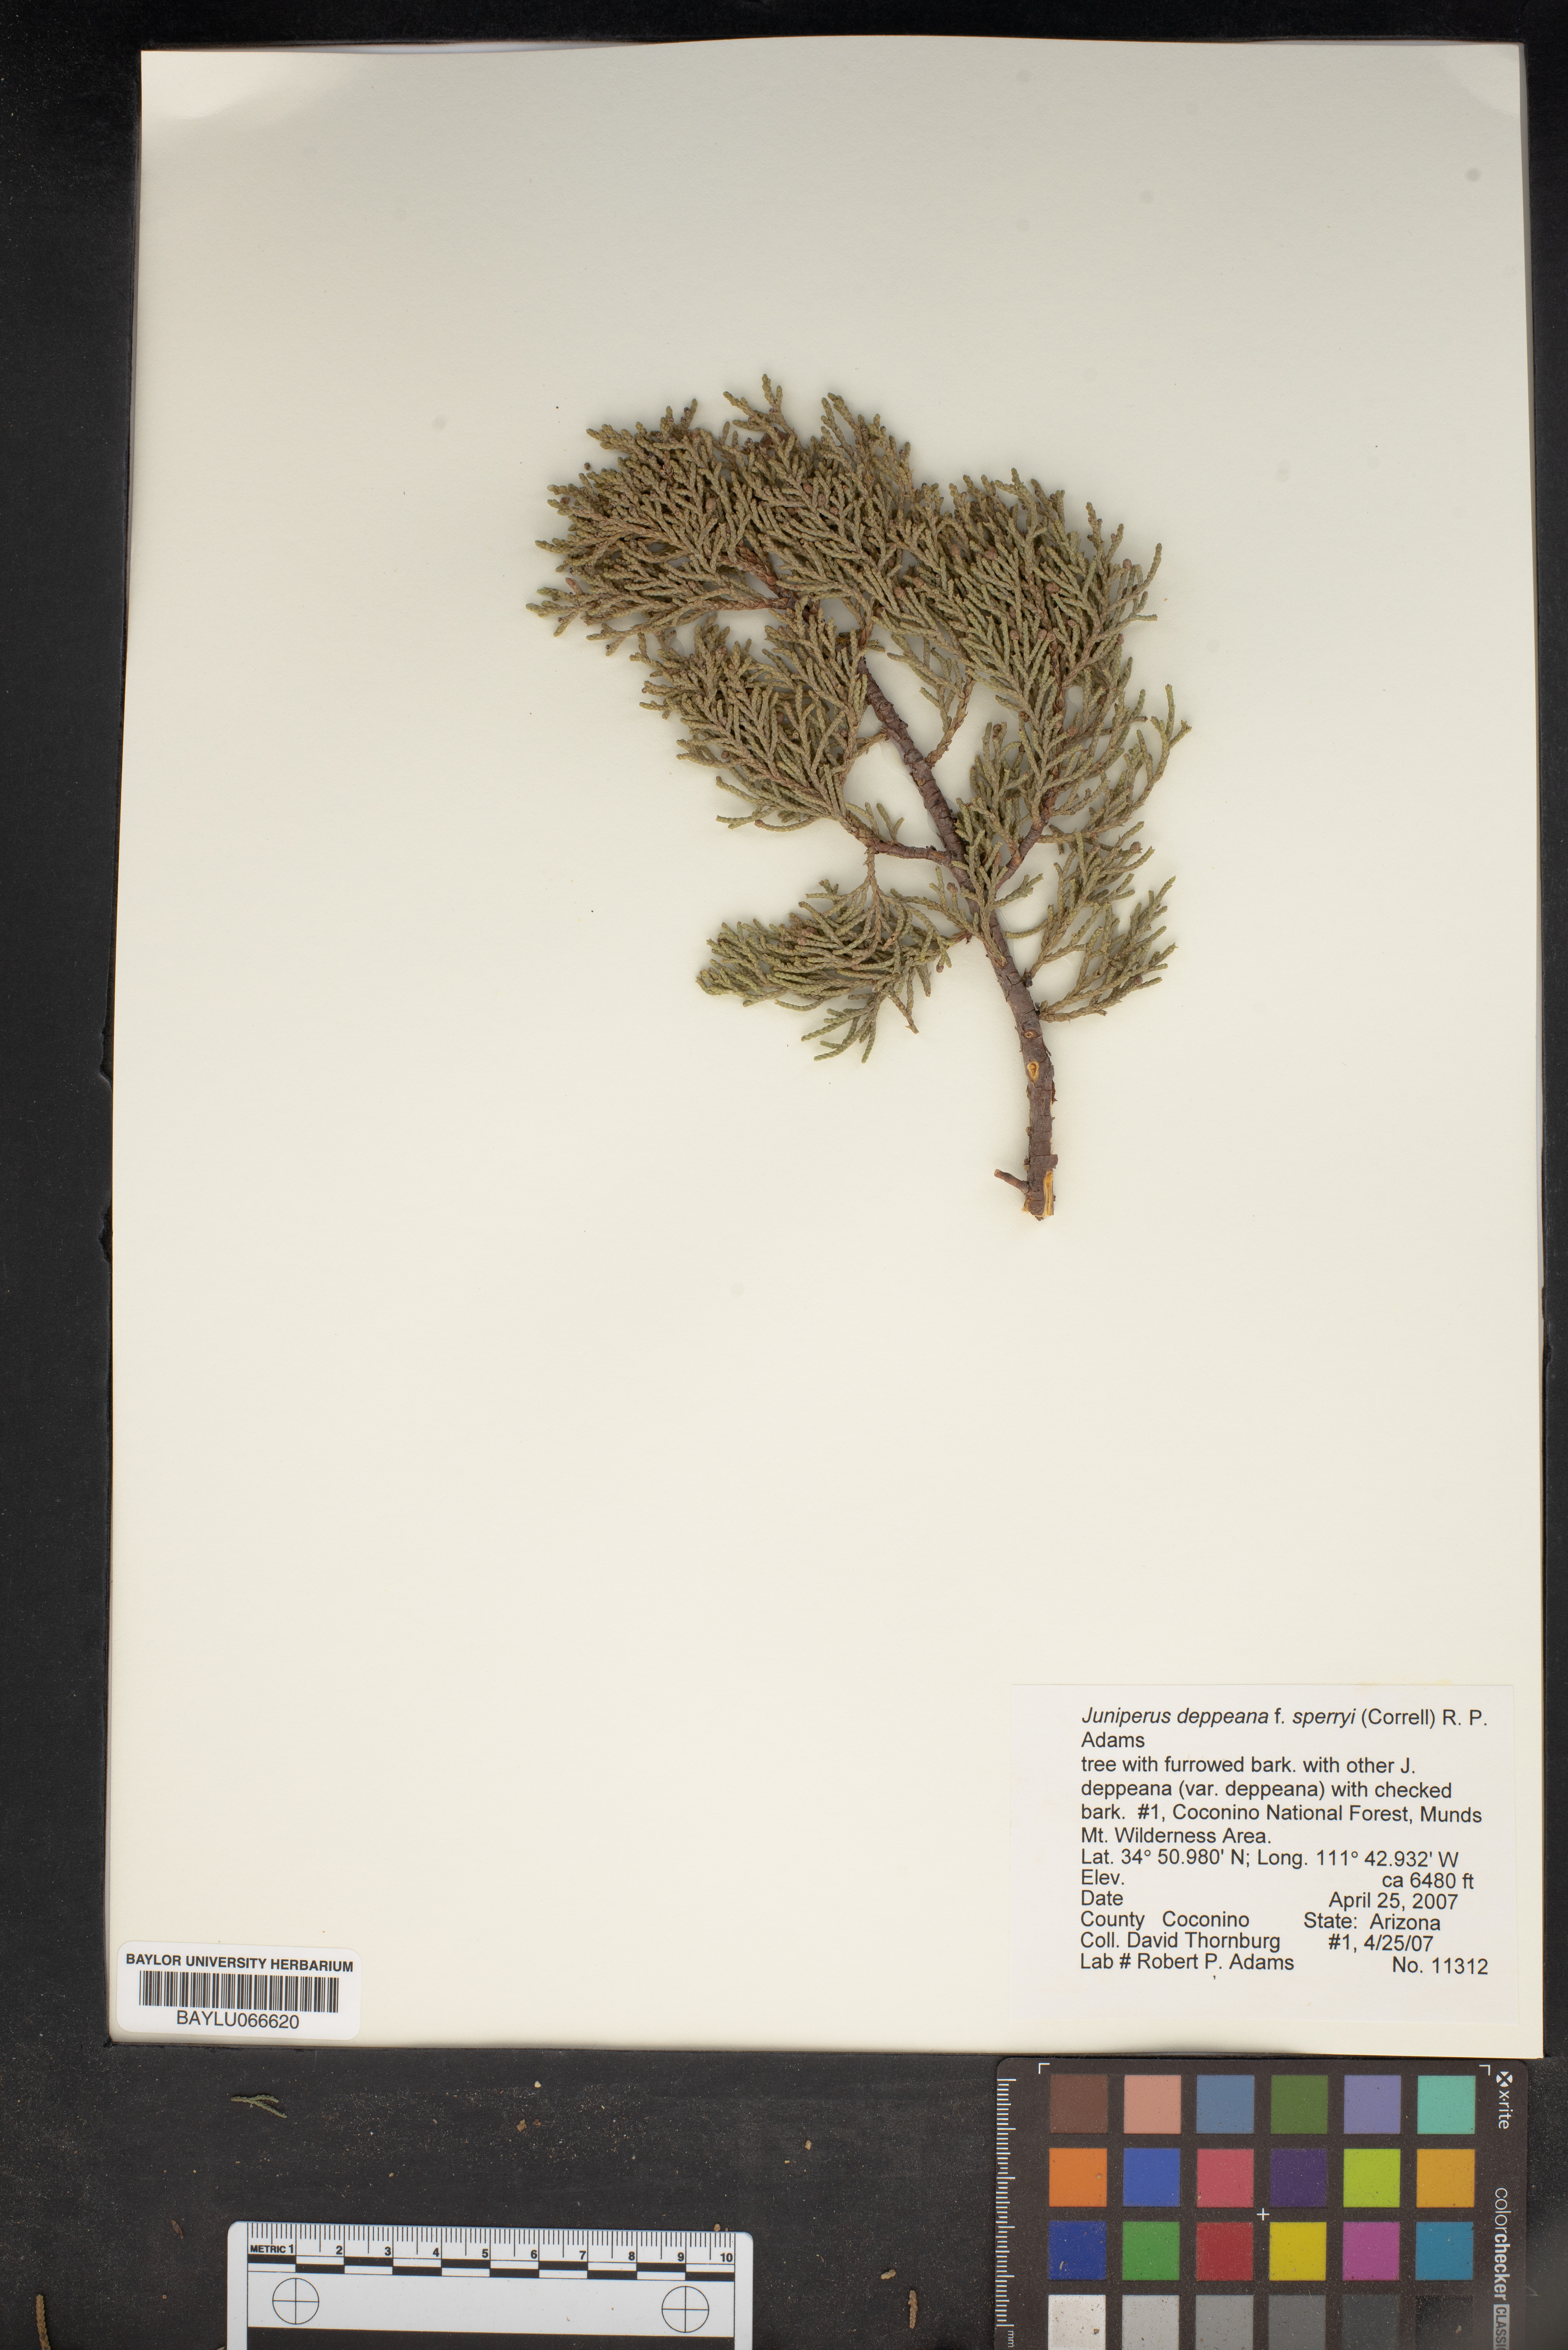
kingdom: Plantae
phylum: Tracheophyta
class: Pinopsida
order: Pinales
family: Cupressaceae
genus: Juniperus
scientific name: Juniperus deppeana
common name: Alligator juniper
